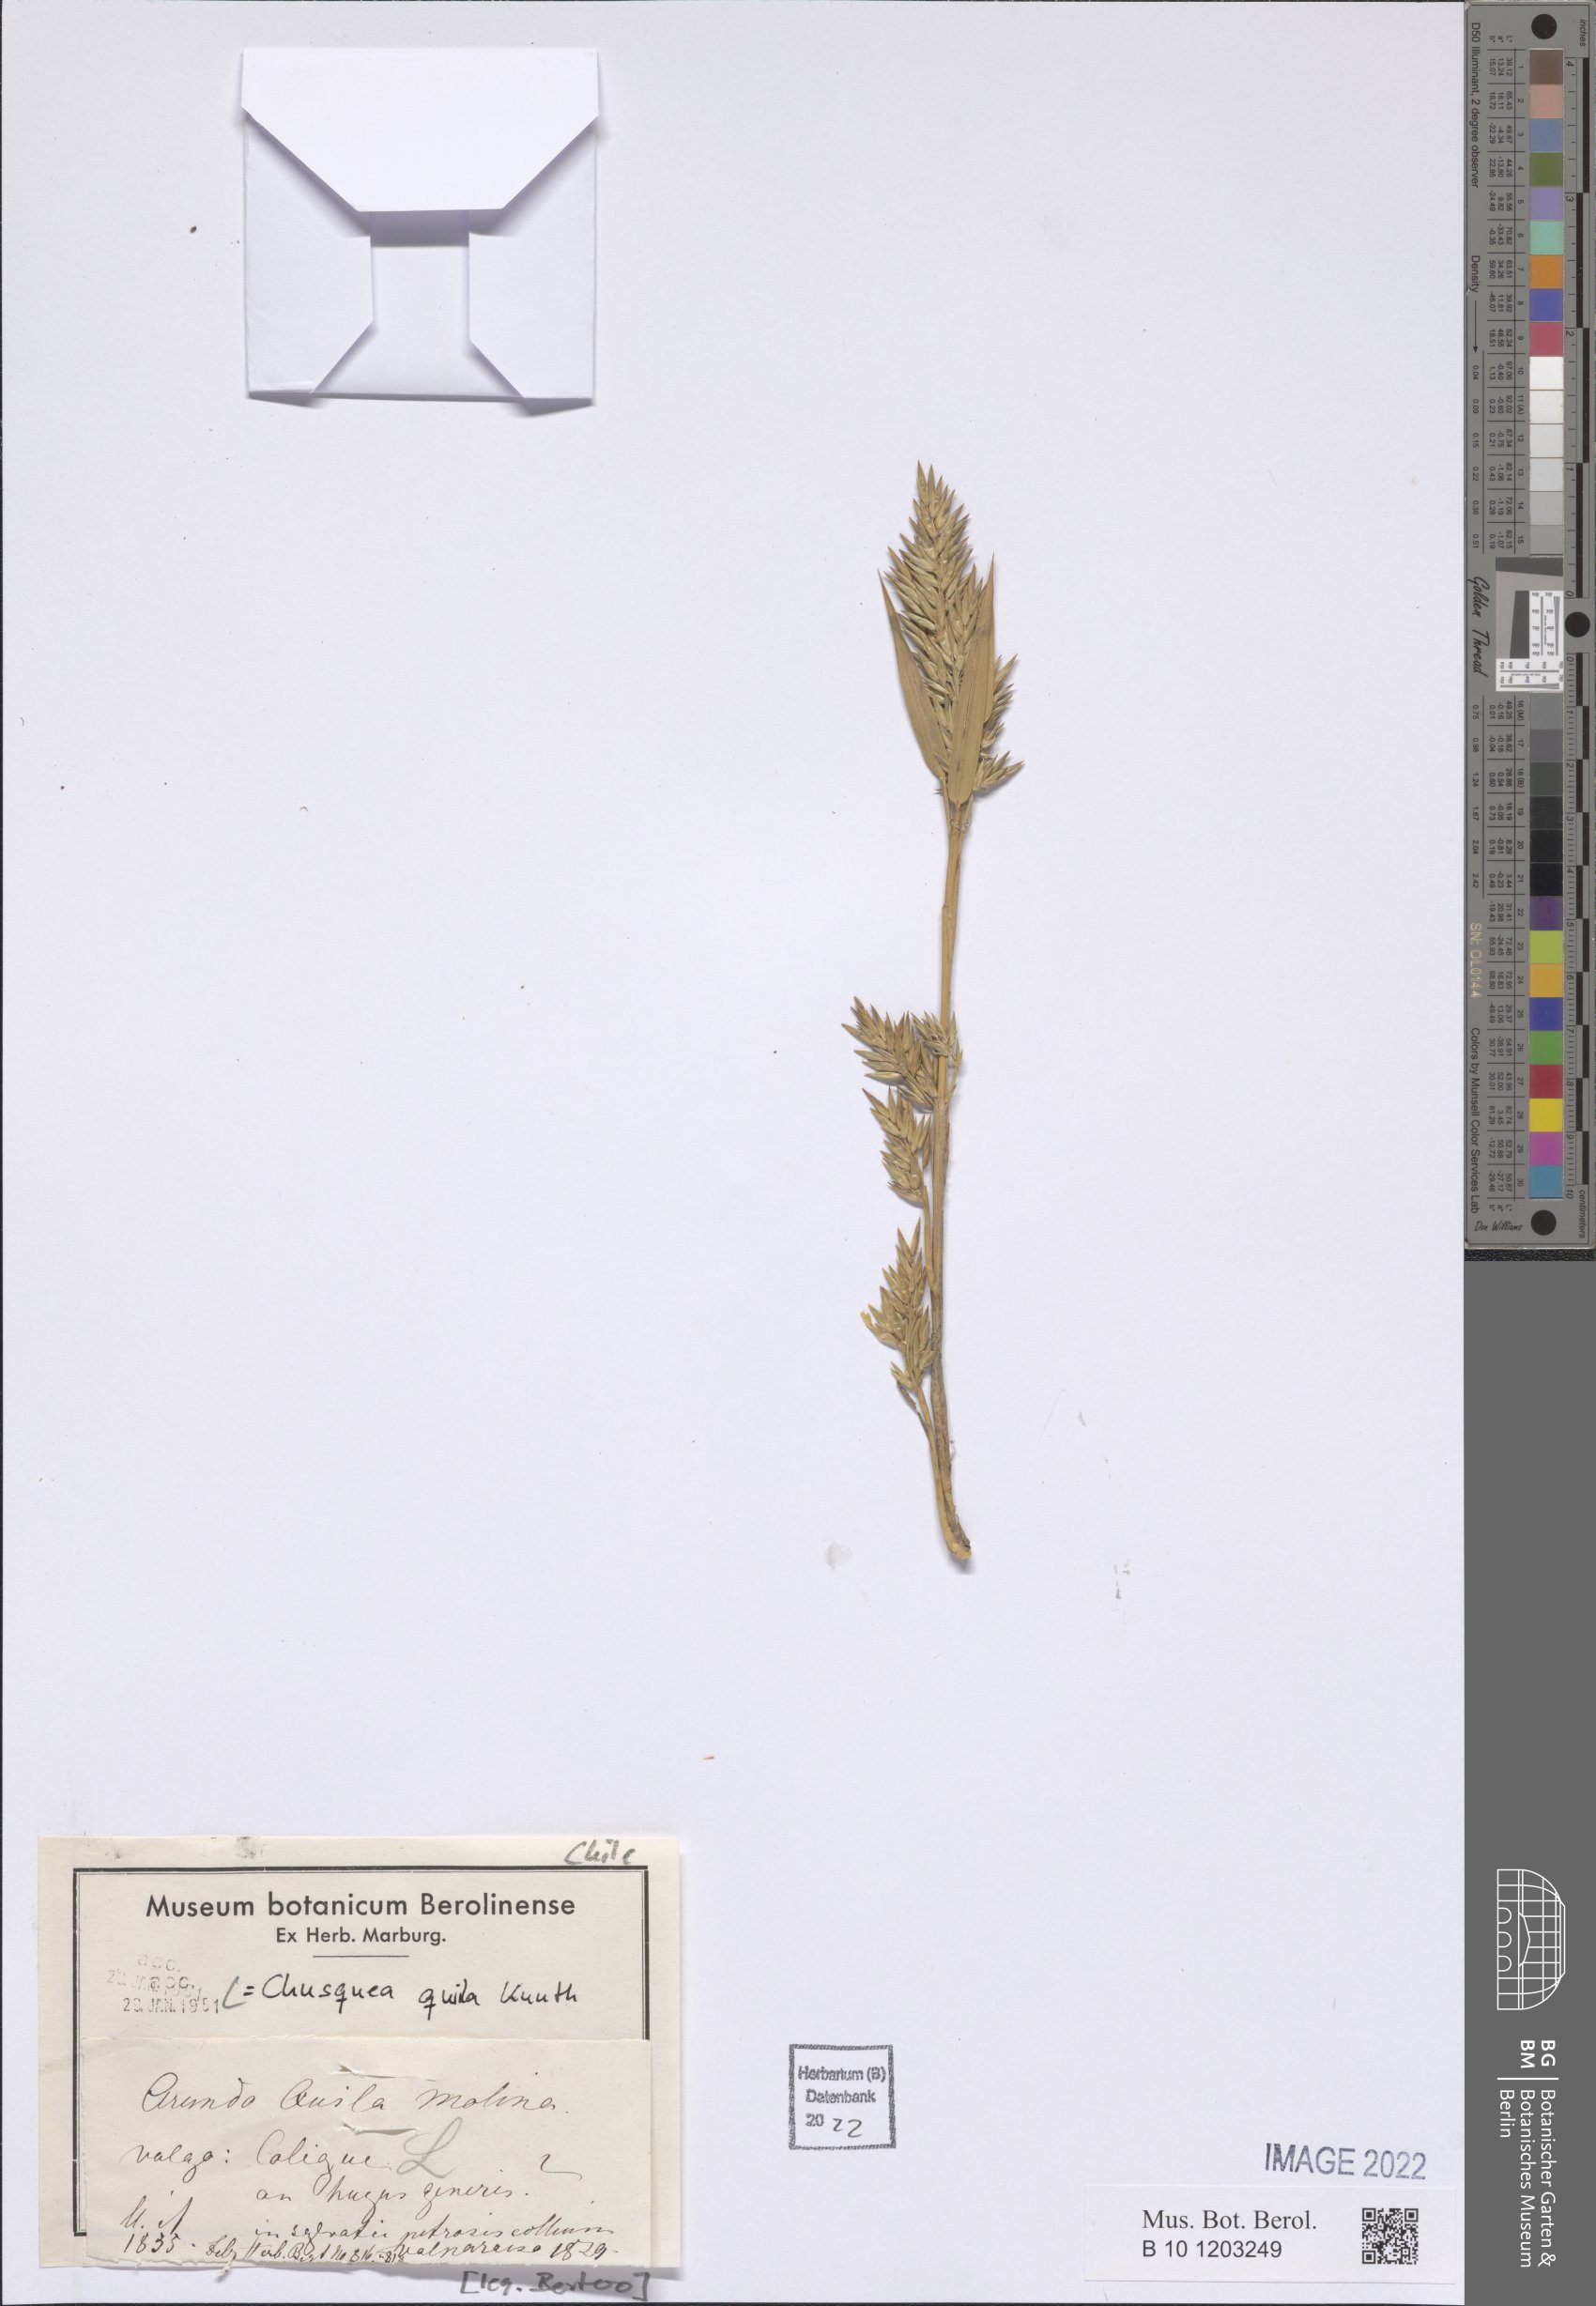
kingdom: Plantae
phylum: Tracheophyta
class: Liliopsida
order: Poales
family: Poaceae
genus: Chusquea
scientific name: Chusquea quila
